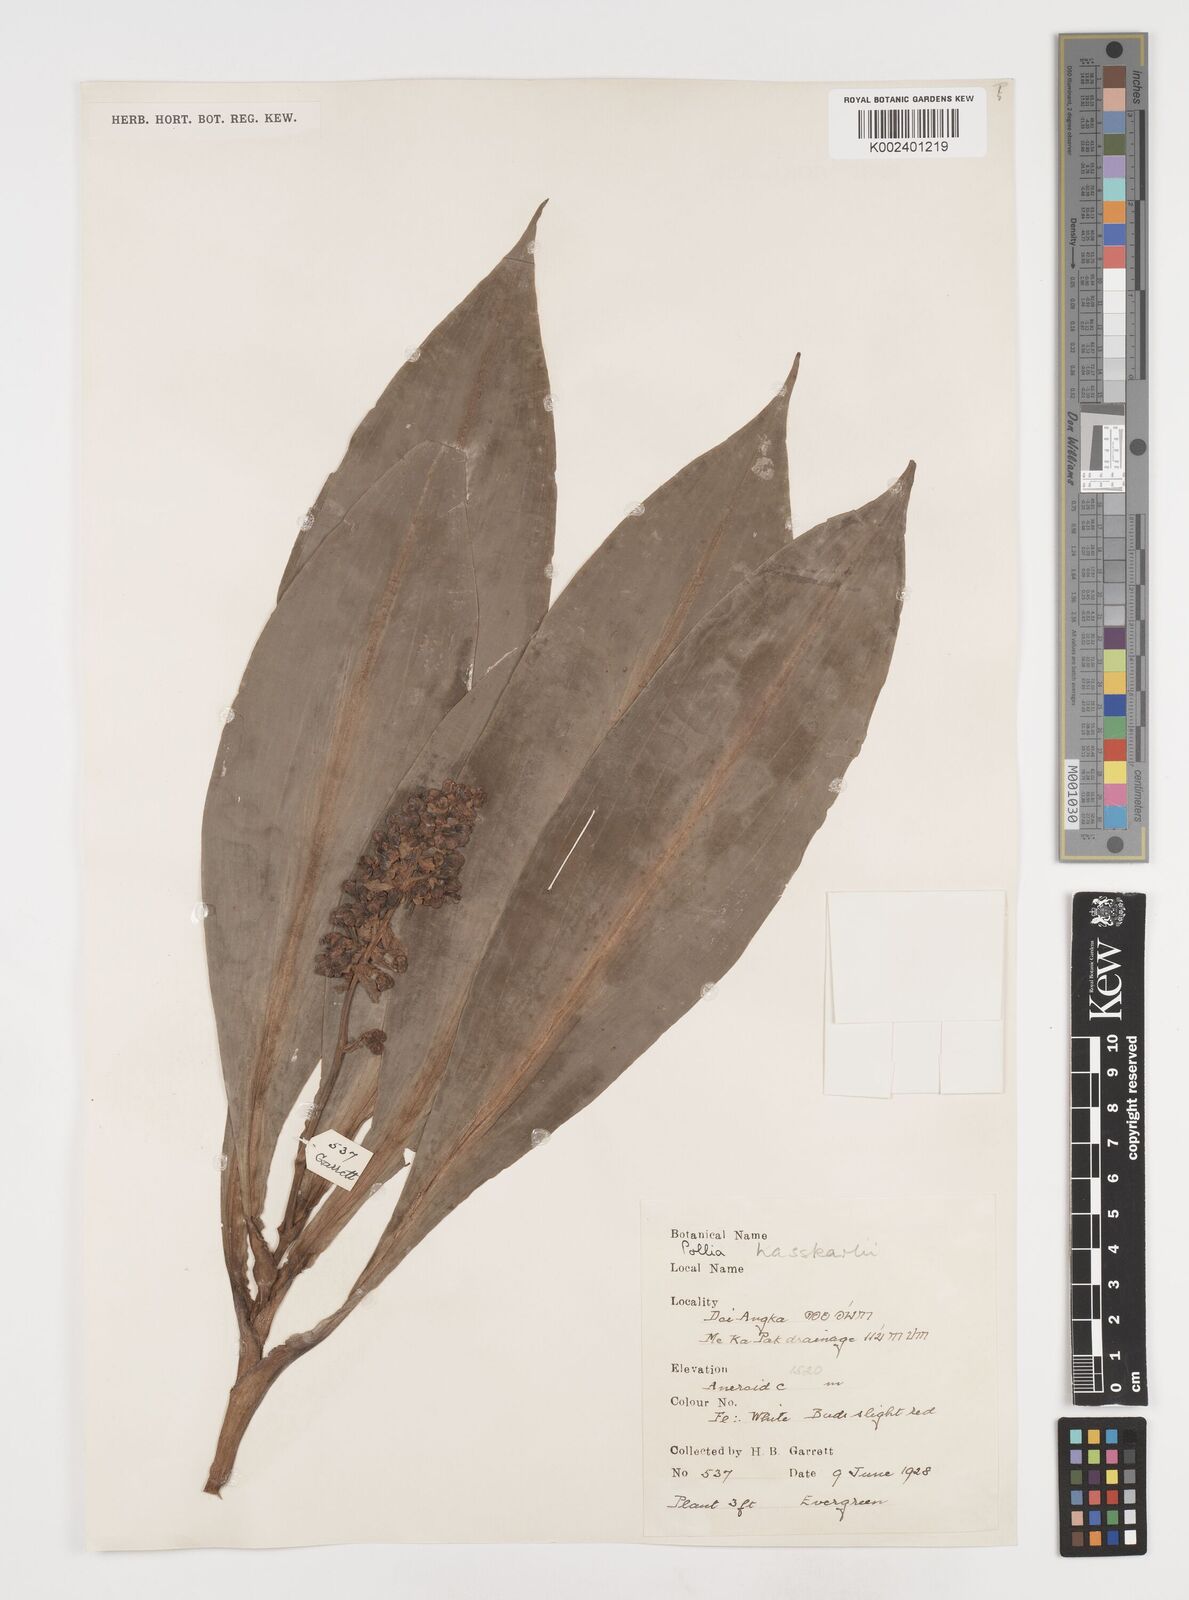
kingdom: Plantae
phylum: Tracheophyta
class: Liliopsida
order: Commelinales
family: Commelinaceae
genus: Pollia
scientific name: Pollia hasskarlii
